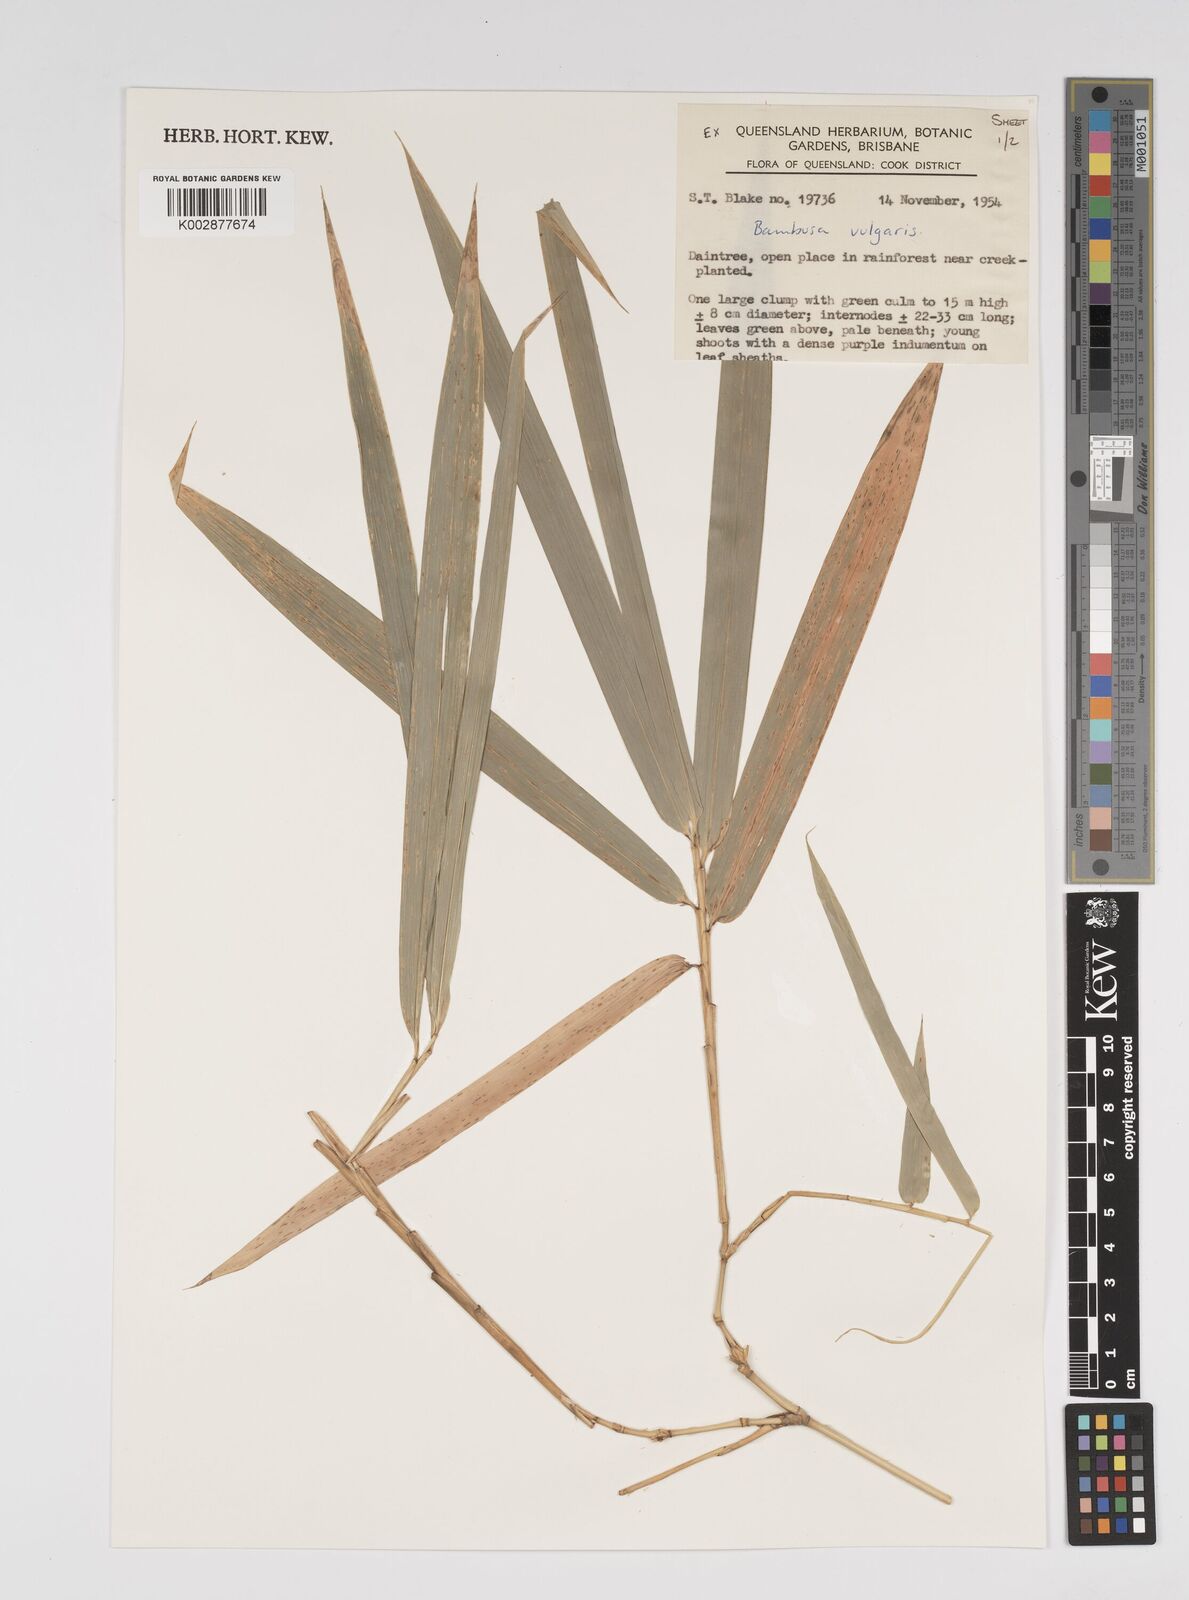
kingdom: Plantae
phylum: Tracheophyta
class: Liliopsida
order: Poales
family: Poaceae
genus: Bambusa
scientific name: Bambusa balcooa
